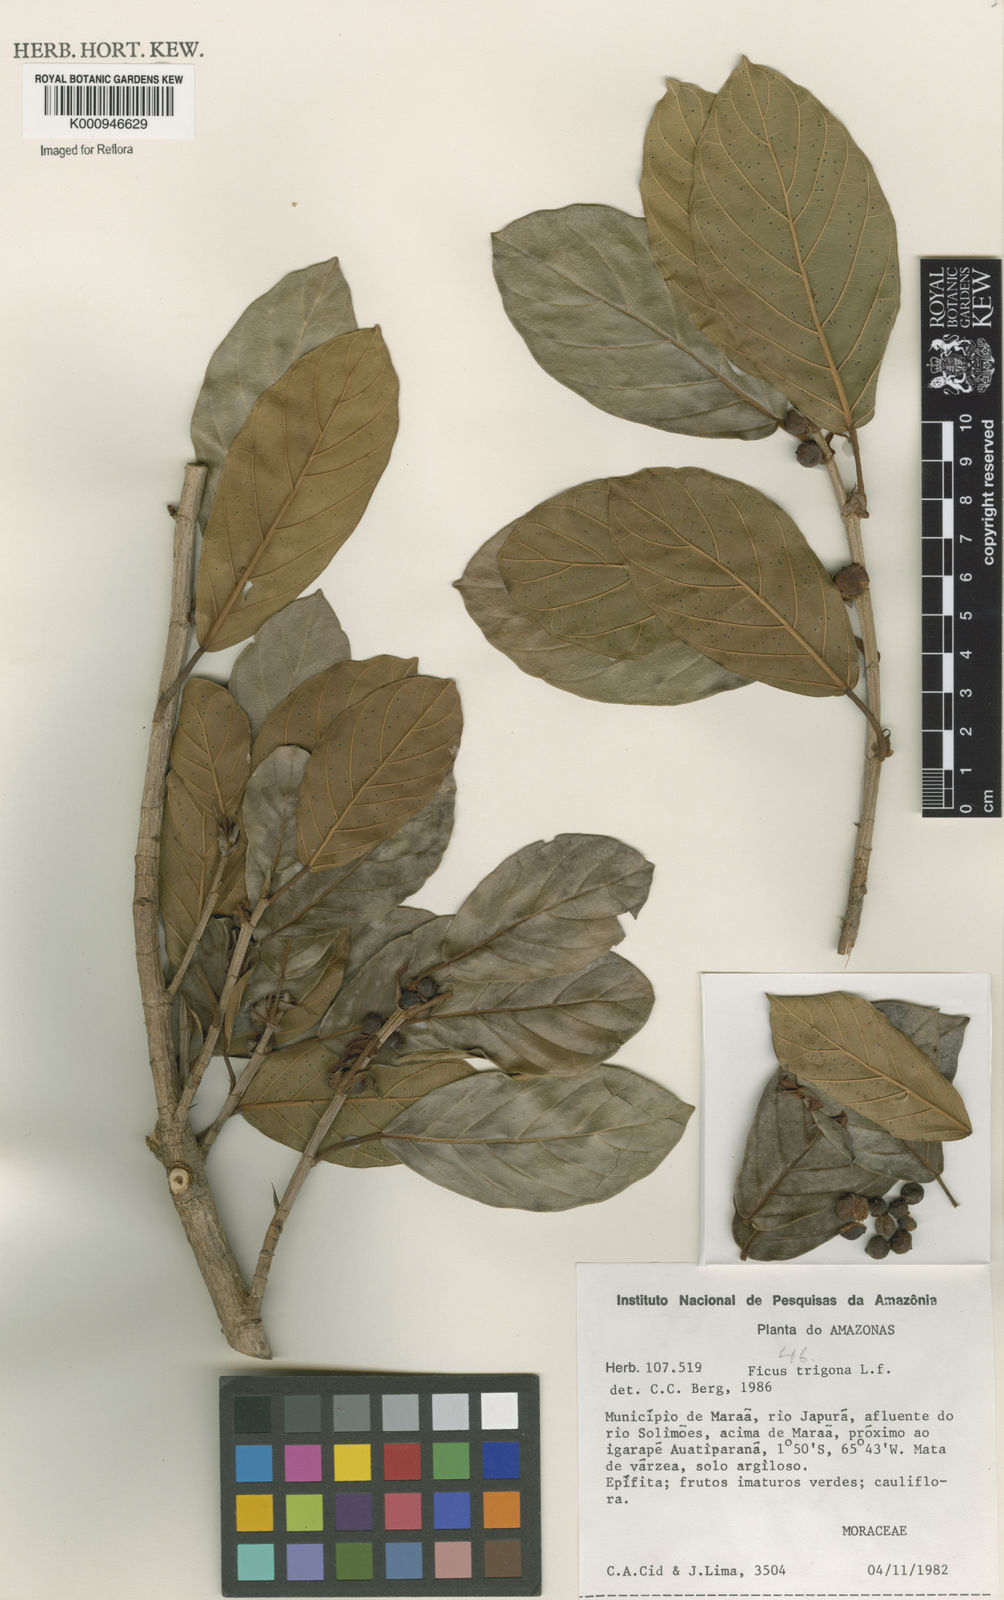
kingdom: Plantae
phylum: Tracheophyta
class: Magnoliopsida
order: Rosales
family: Moraceae
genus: Ficus
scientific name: Ficus trigona
